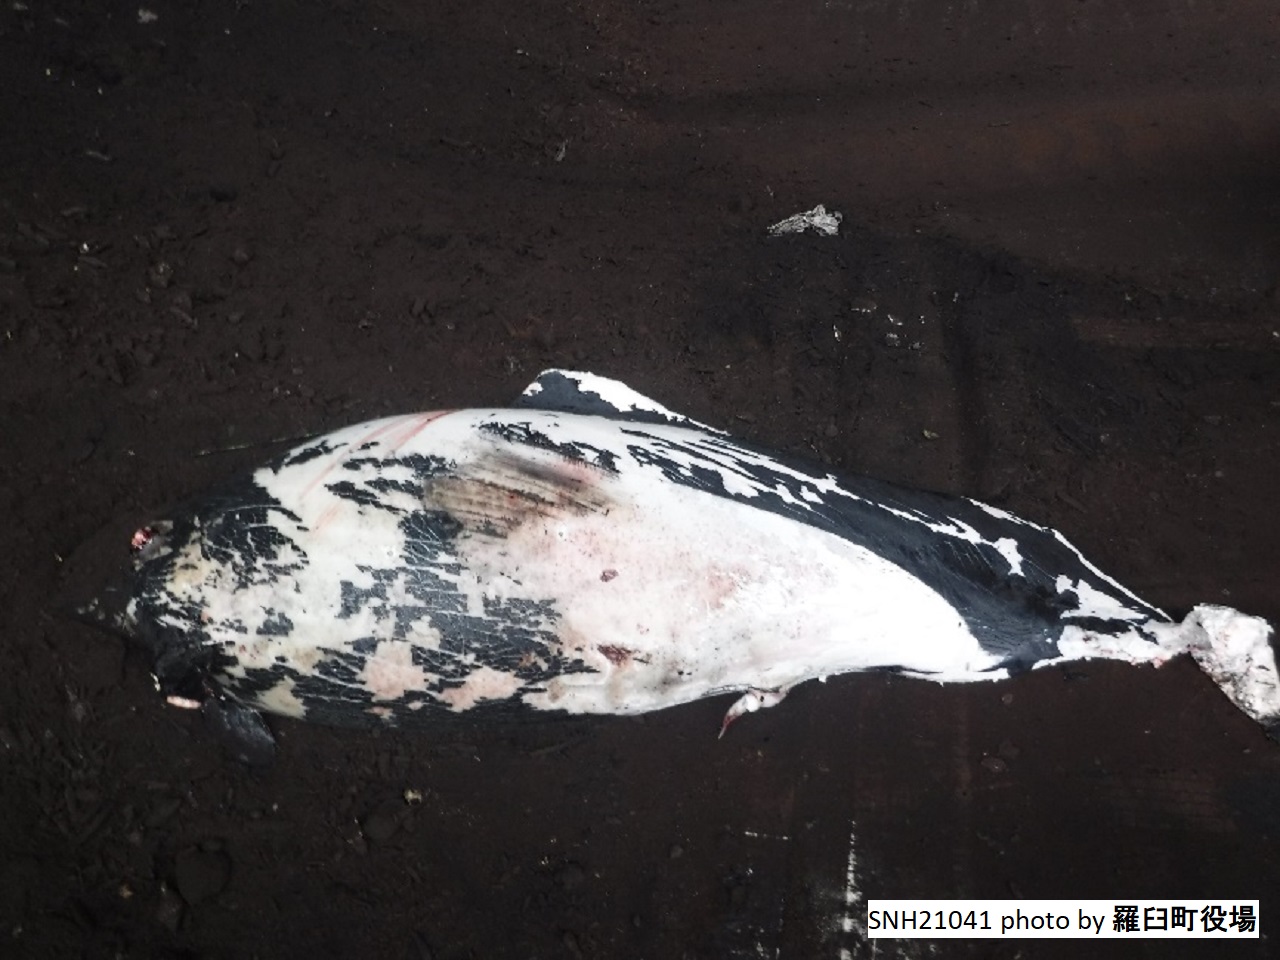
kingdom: Animalia
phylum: Chordata
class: Mammalia
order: Cetacea
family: Phocoenidae
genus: Phocoenoides
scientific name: Phocoenoides dalli
